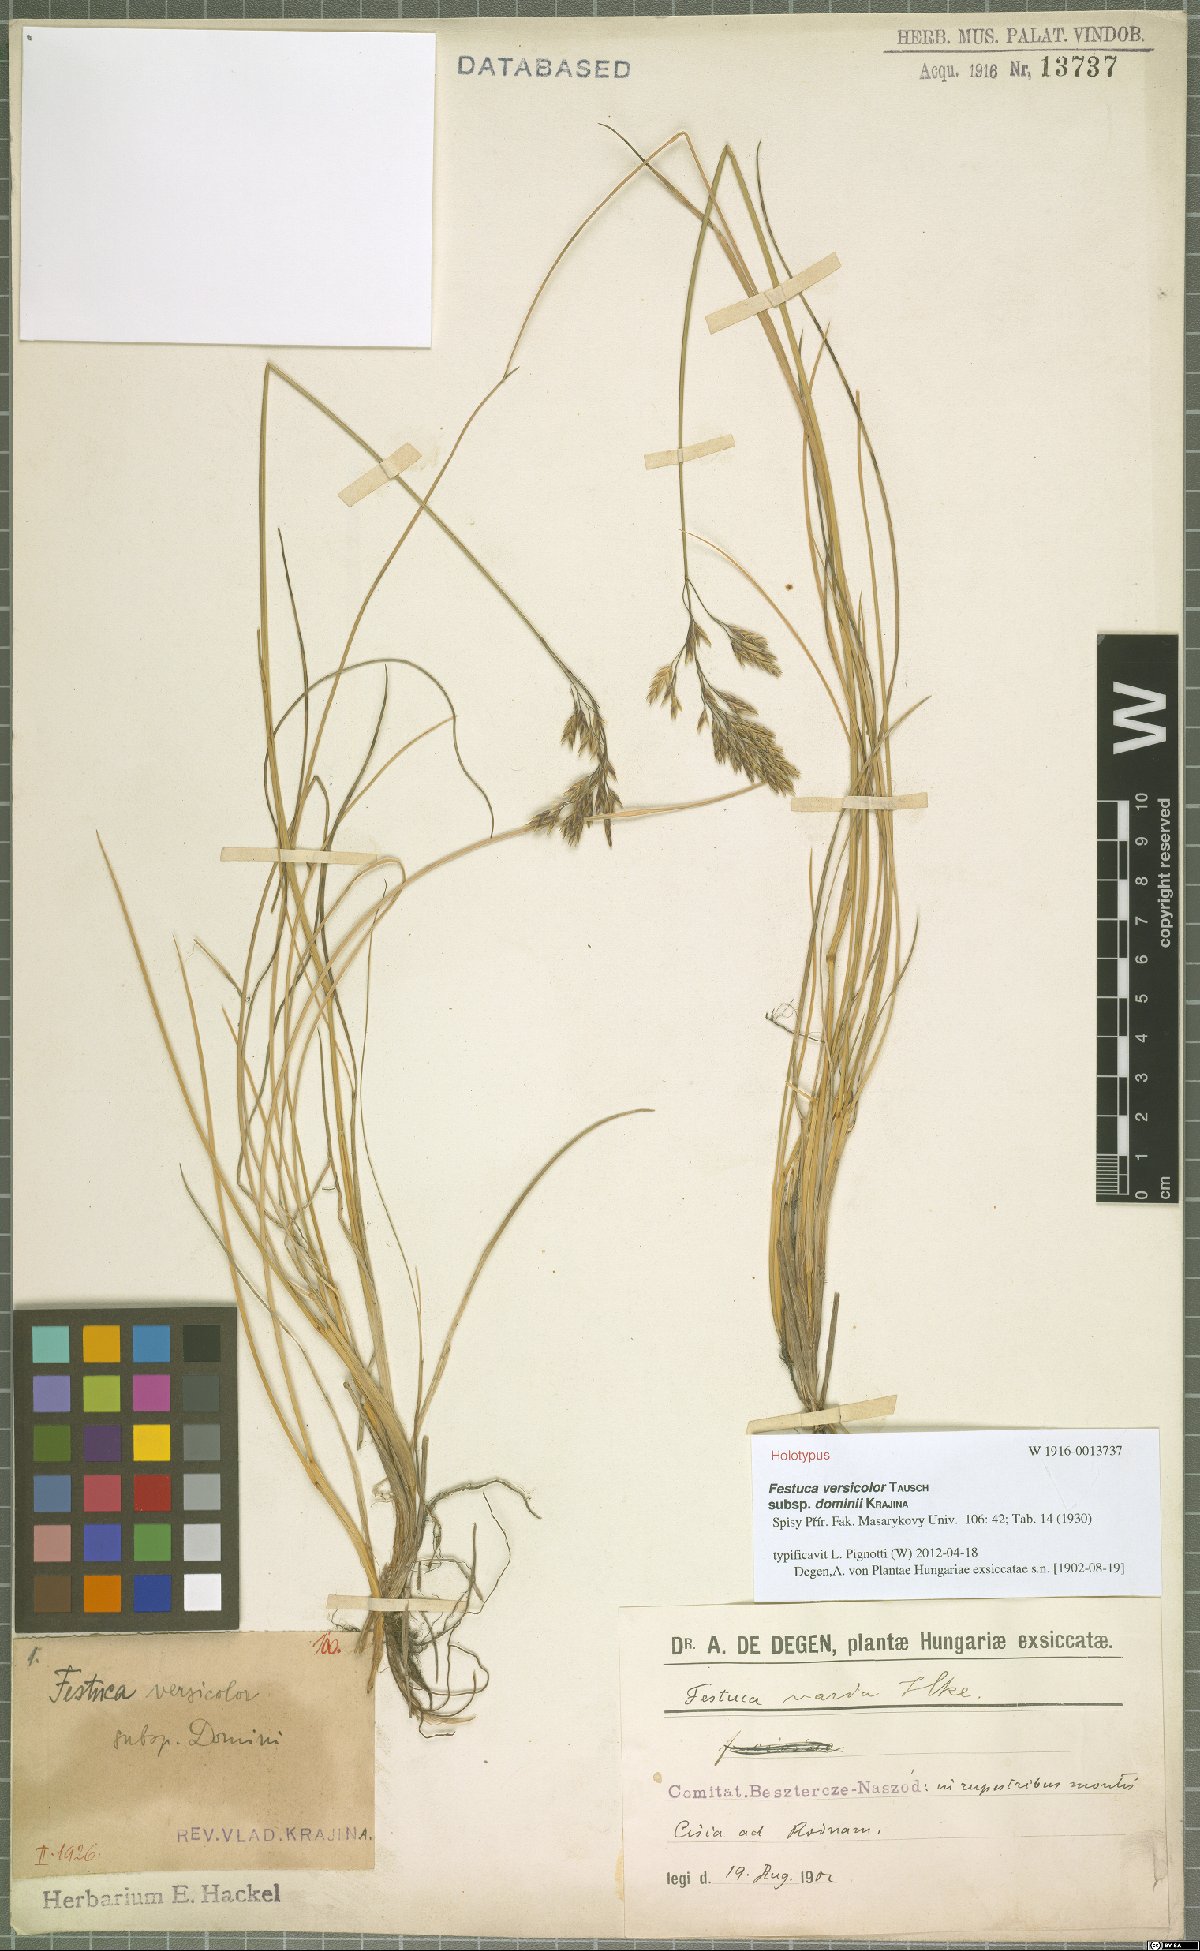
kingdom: Plantae
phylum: Tracheophyta
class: Liliopsida
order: Poales
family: Poaceae
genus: Festuca
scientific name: Festuca versicolor
